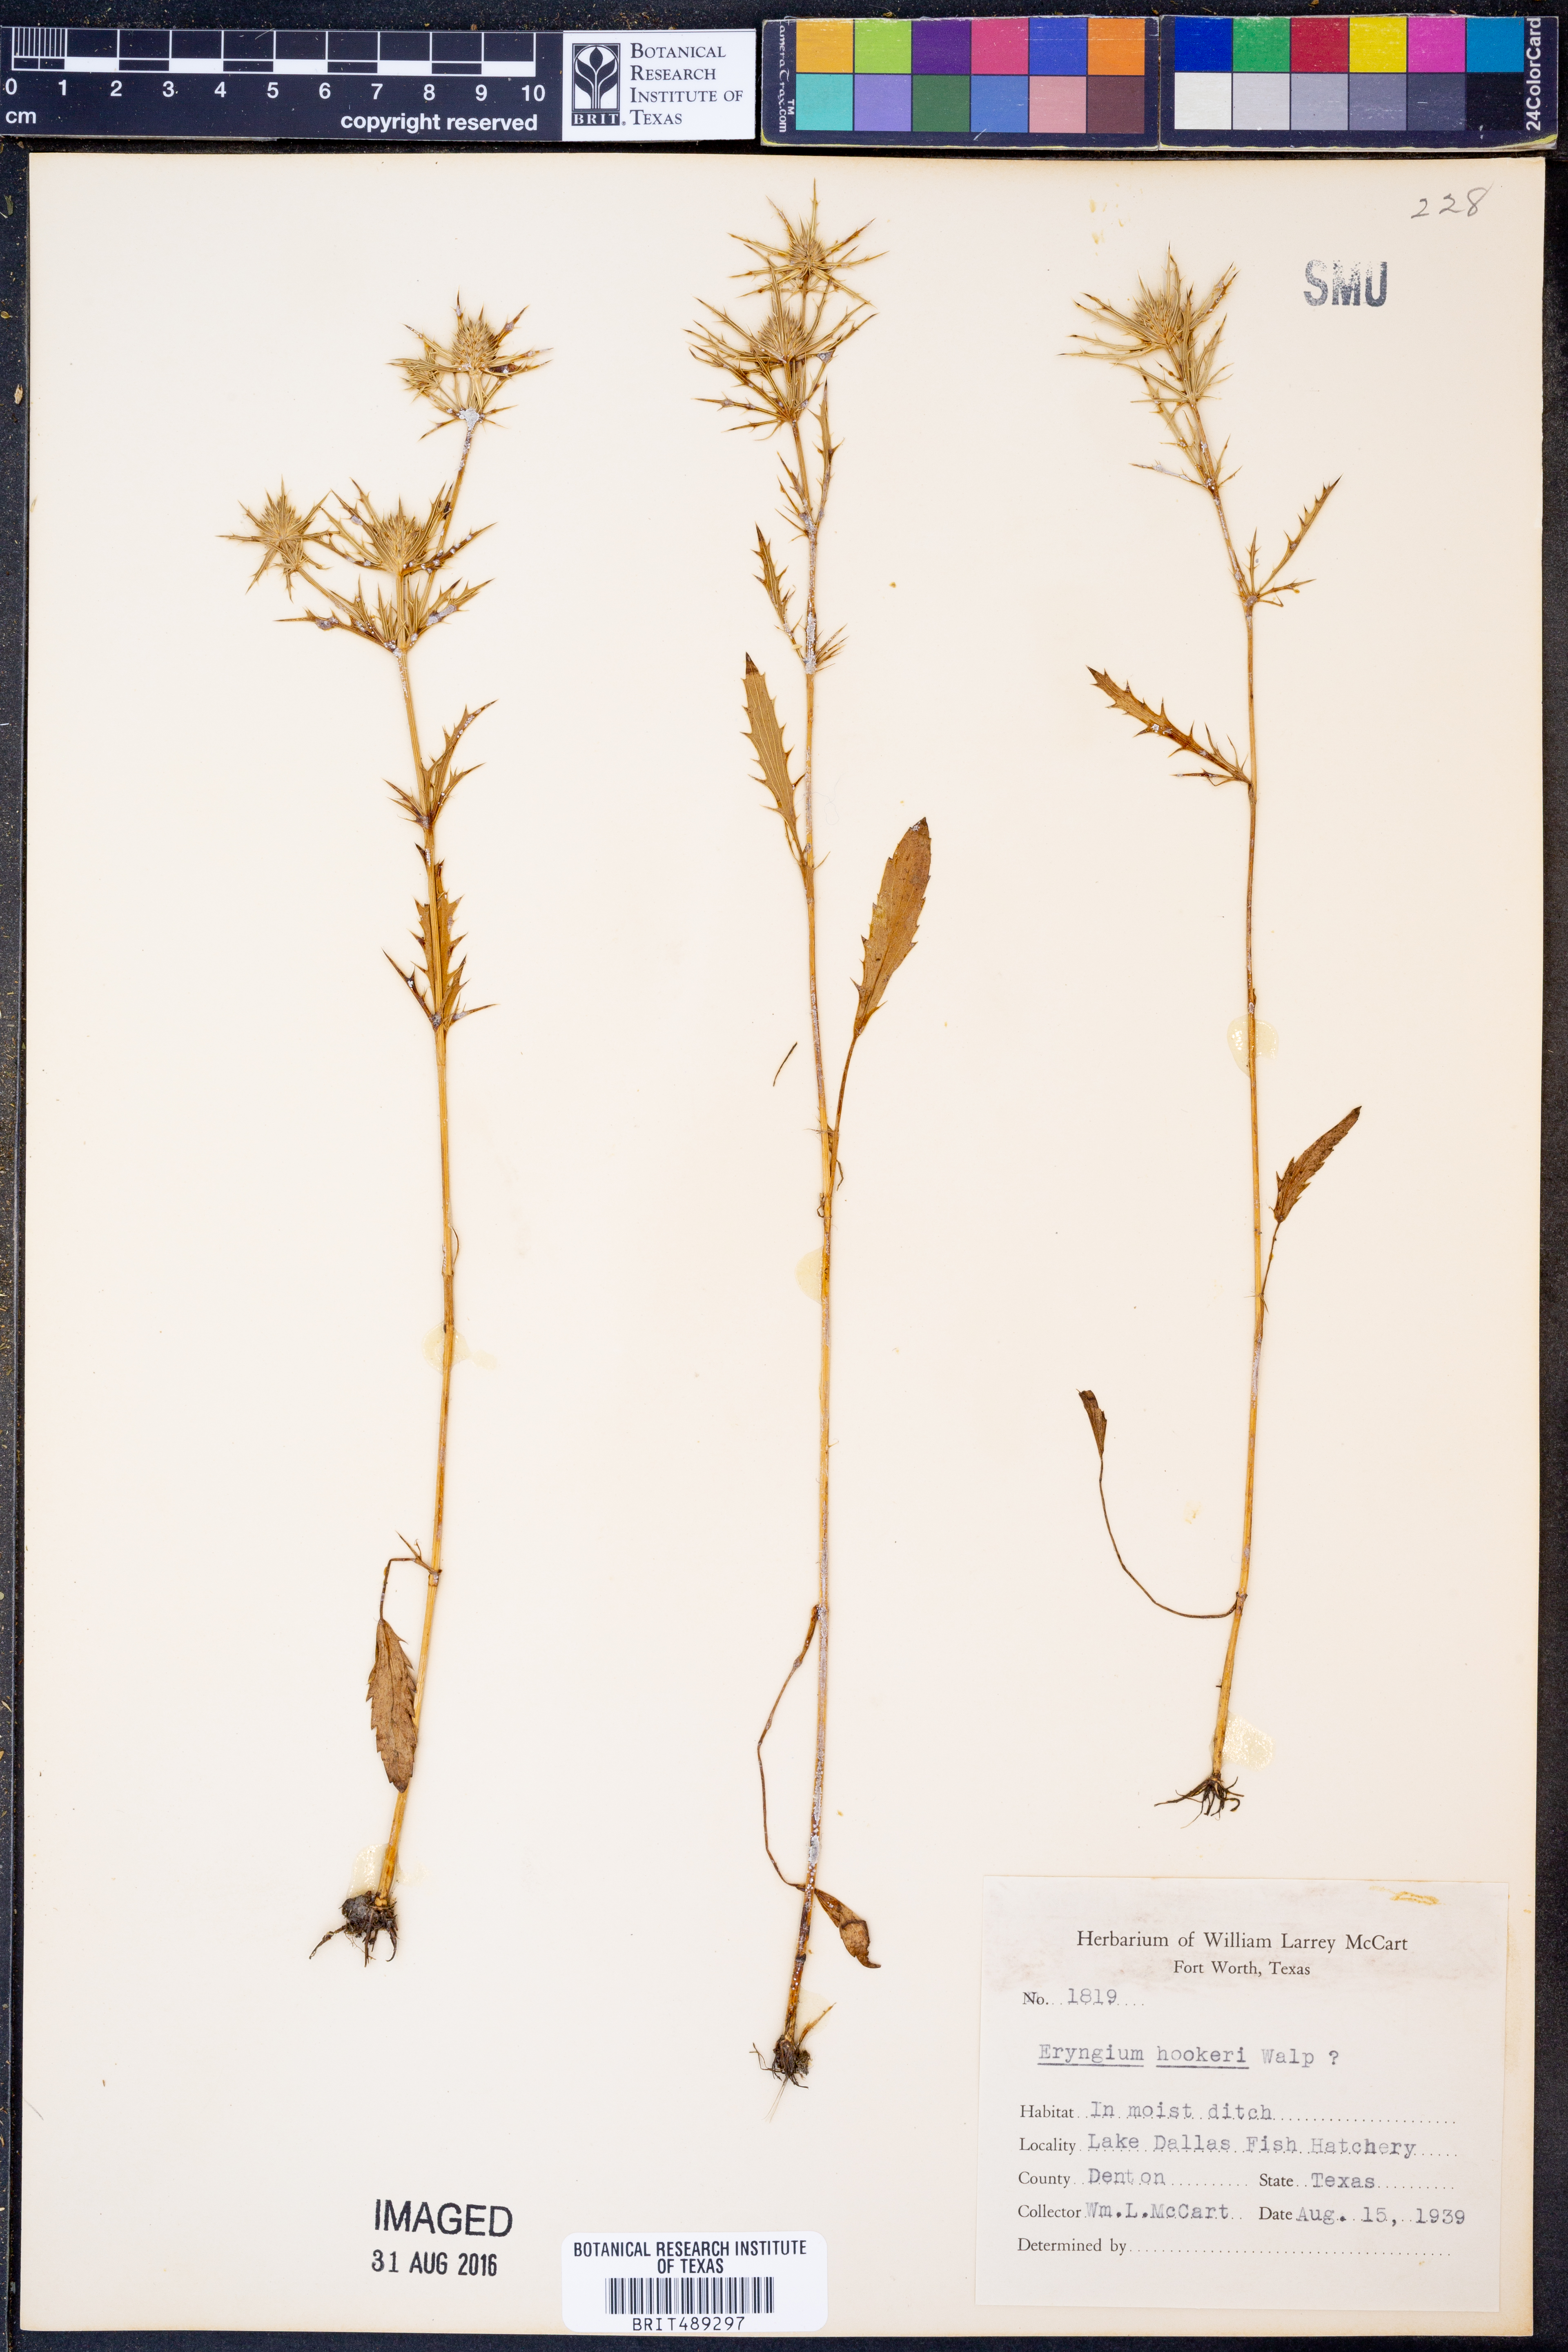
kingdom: Plantae
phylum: Tracheophyta
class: Magnoliopsida
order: Apiales
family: Apiaceae
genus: Eryngium
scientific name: Eryngium hookeri
